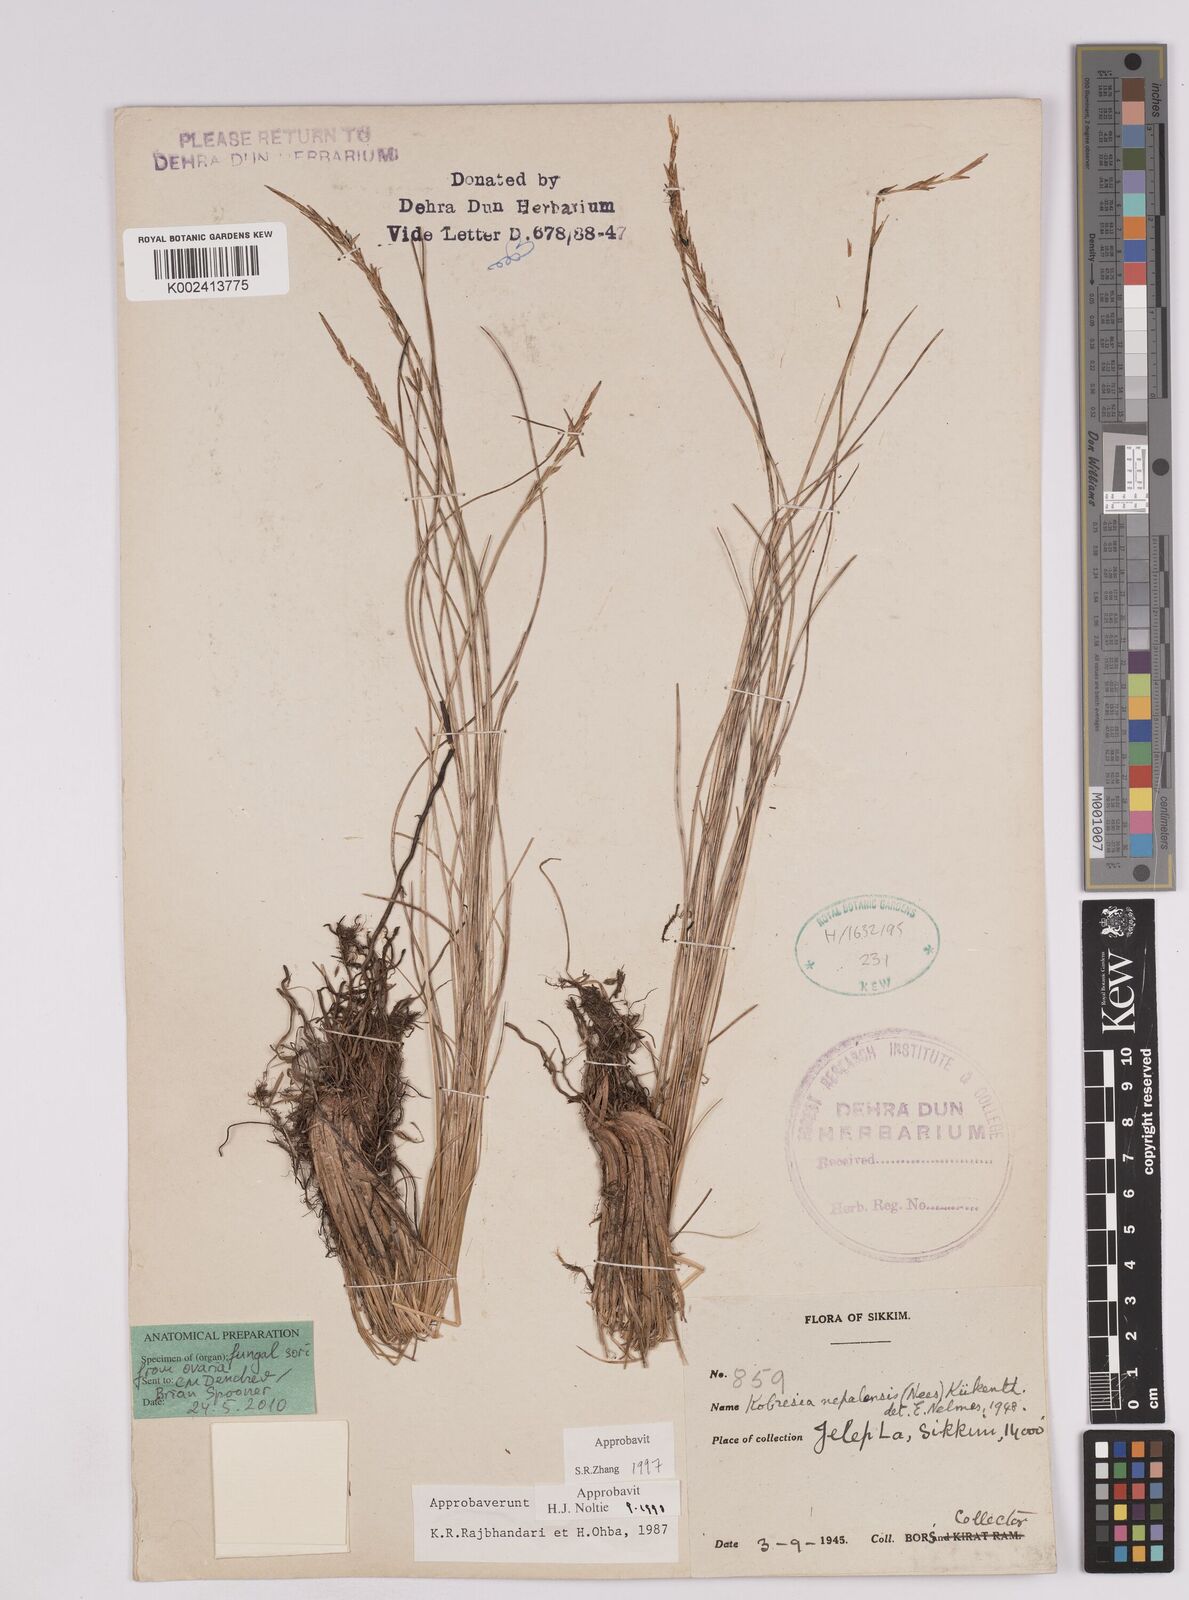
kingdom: Plantae
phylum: Tracheophyta
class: Liliopsida
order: Poales
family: Cyperaceae
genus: Carex
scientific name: Carex unciniiformis
